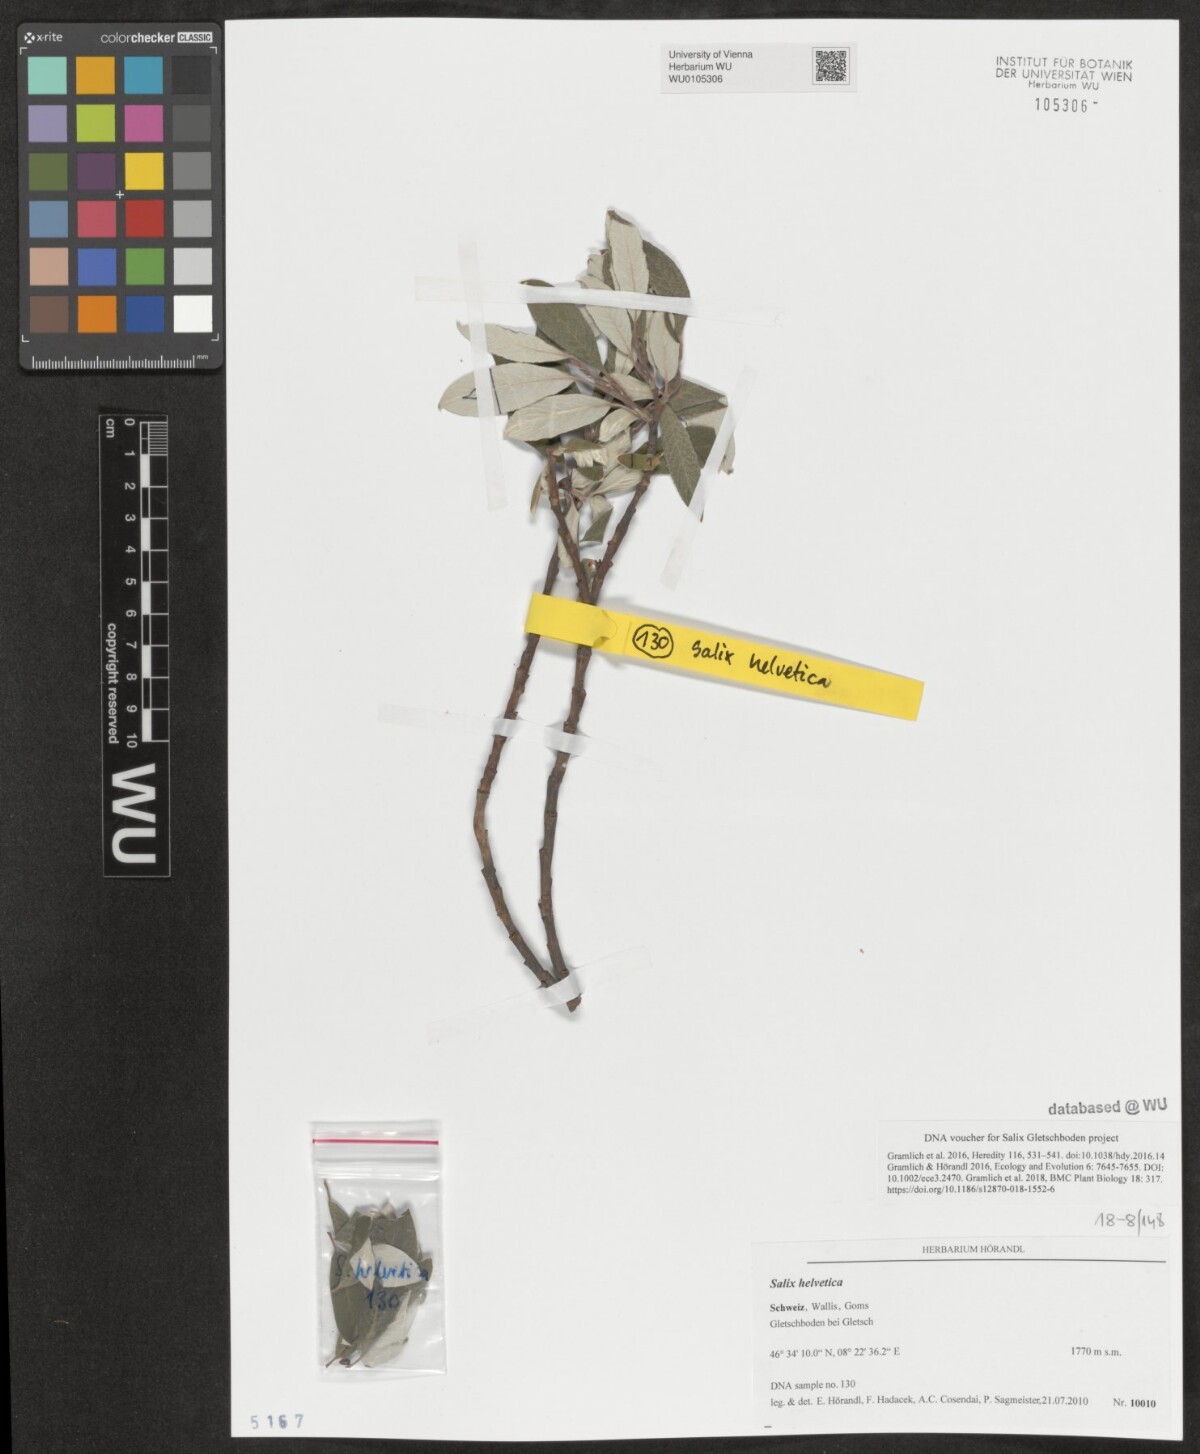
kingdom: Plantae
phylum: Tracheophyta
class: Magnoliopsida
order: Malpighiales
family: Salicaceae
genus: Salix
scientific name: Salix helvetica
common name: Swiss willow
